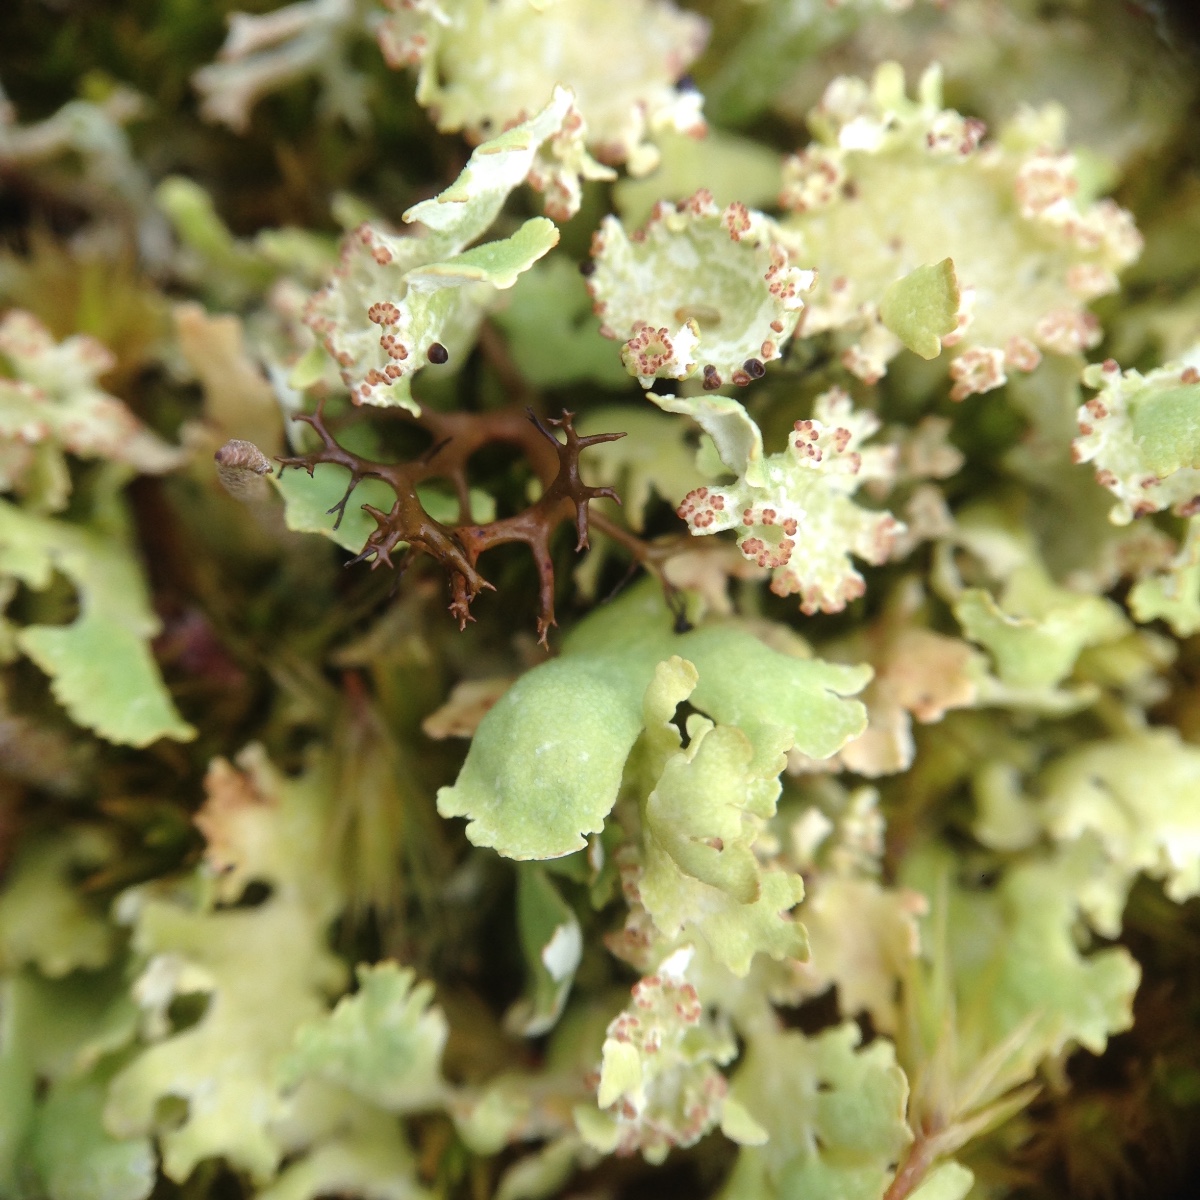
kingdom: Fungi
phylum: Ascomycota
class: Lecanoromycetes
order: Lecanorales
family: Cladoniaceae
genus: Cladonia
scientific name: Cladonia foliacea
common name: fliget bægerlav
